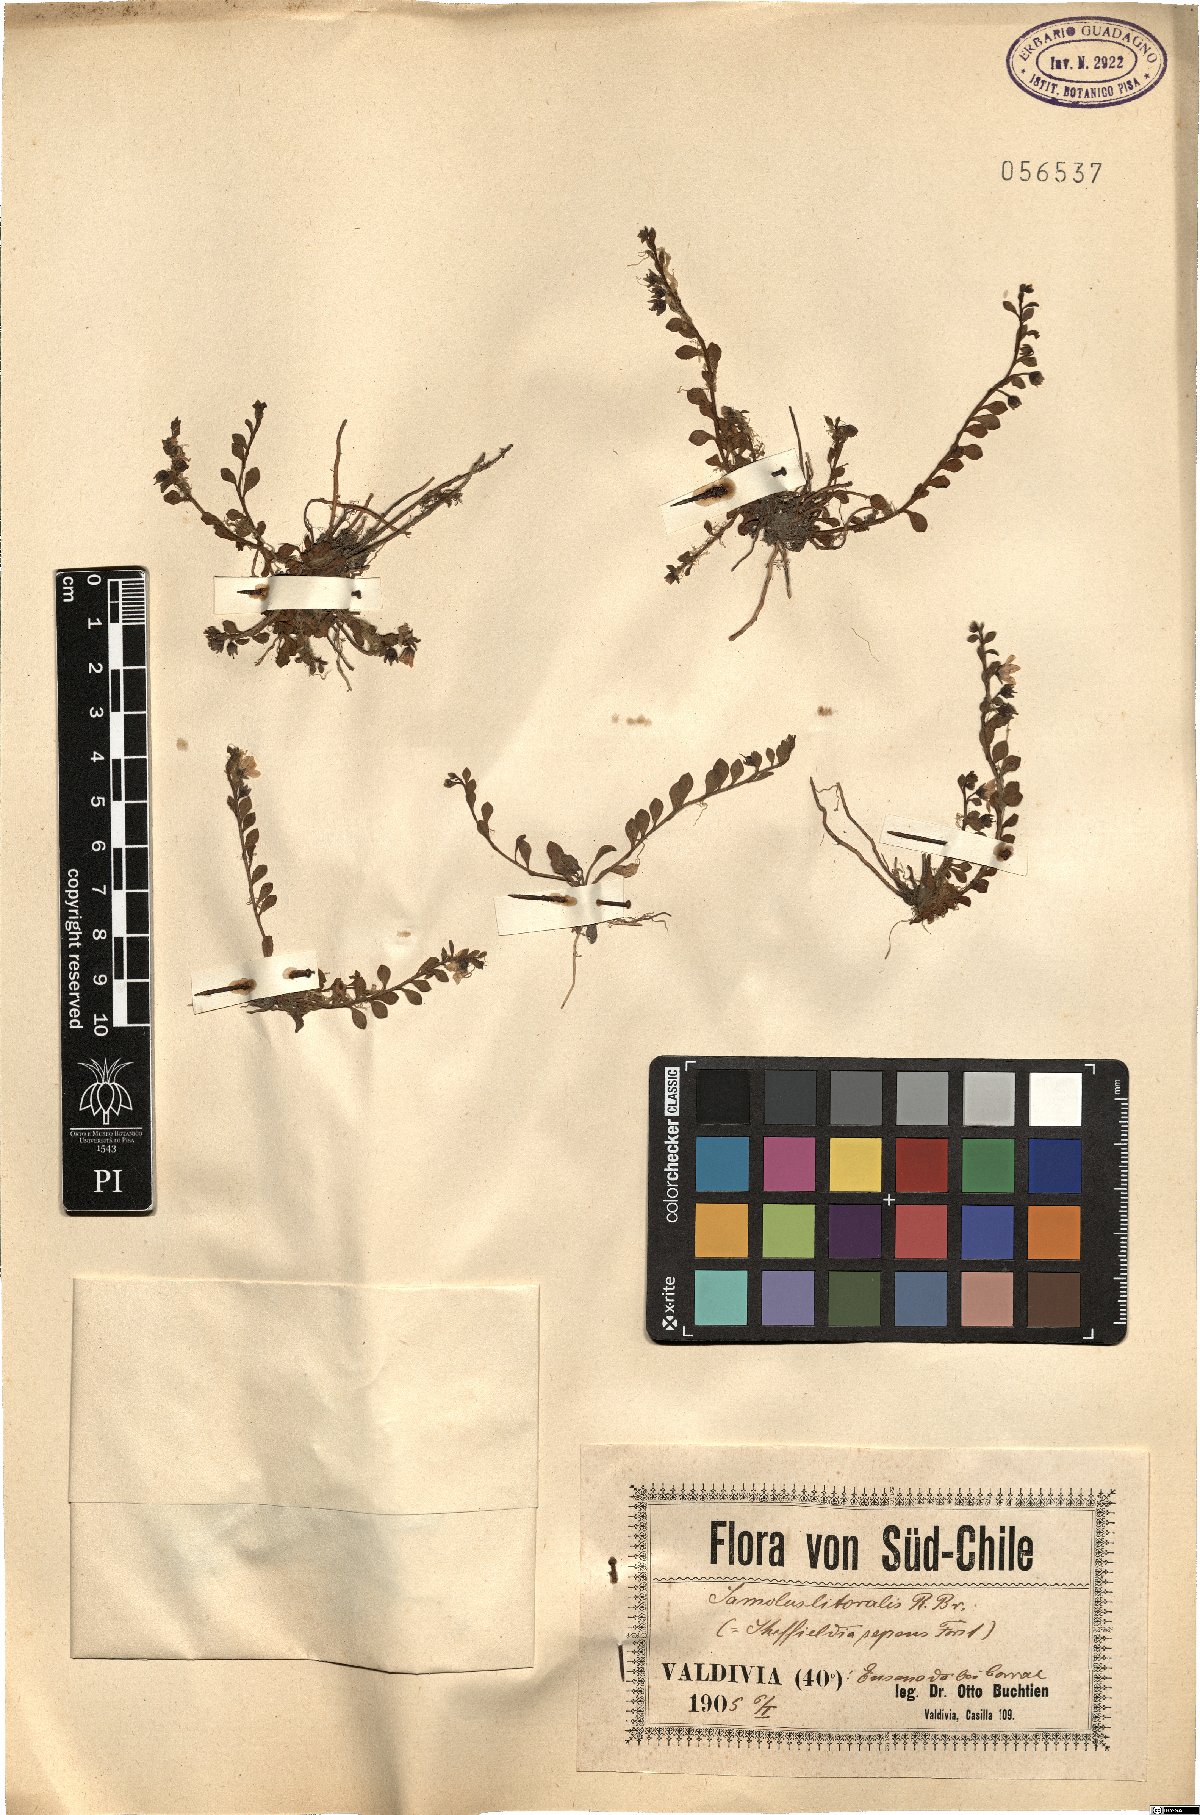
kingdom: Plantae
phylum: Tracheophyta
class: Magnoliopsida
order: Ericales
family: Primulaceae
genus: Samolus
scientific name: Samolus repens
